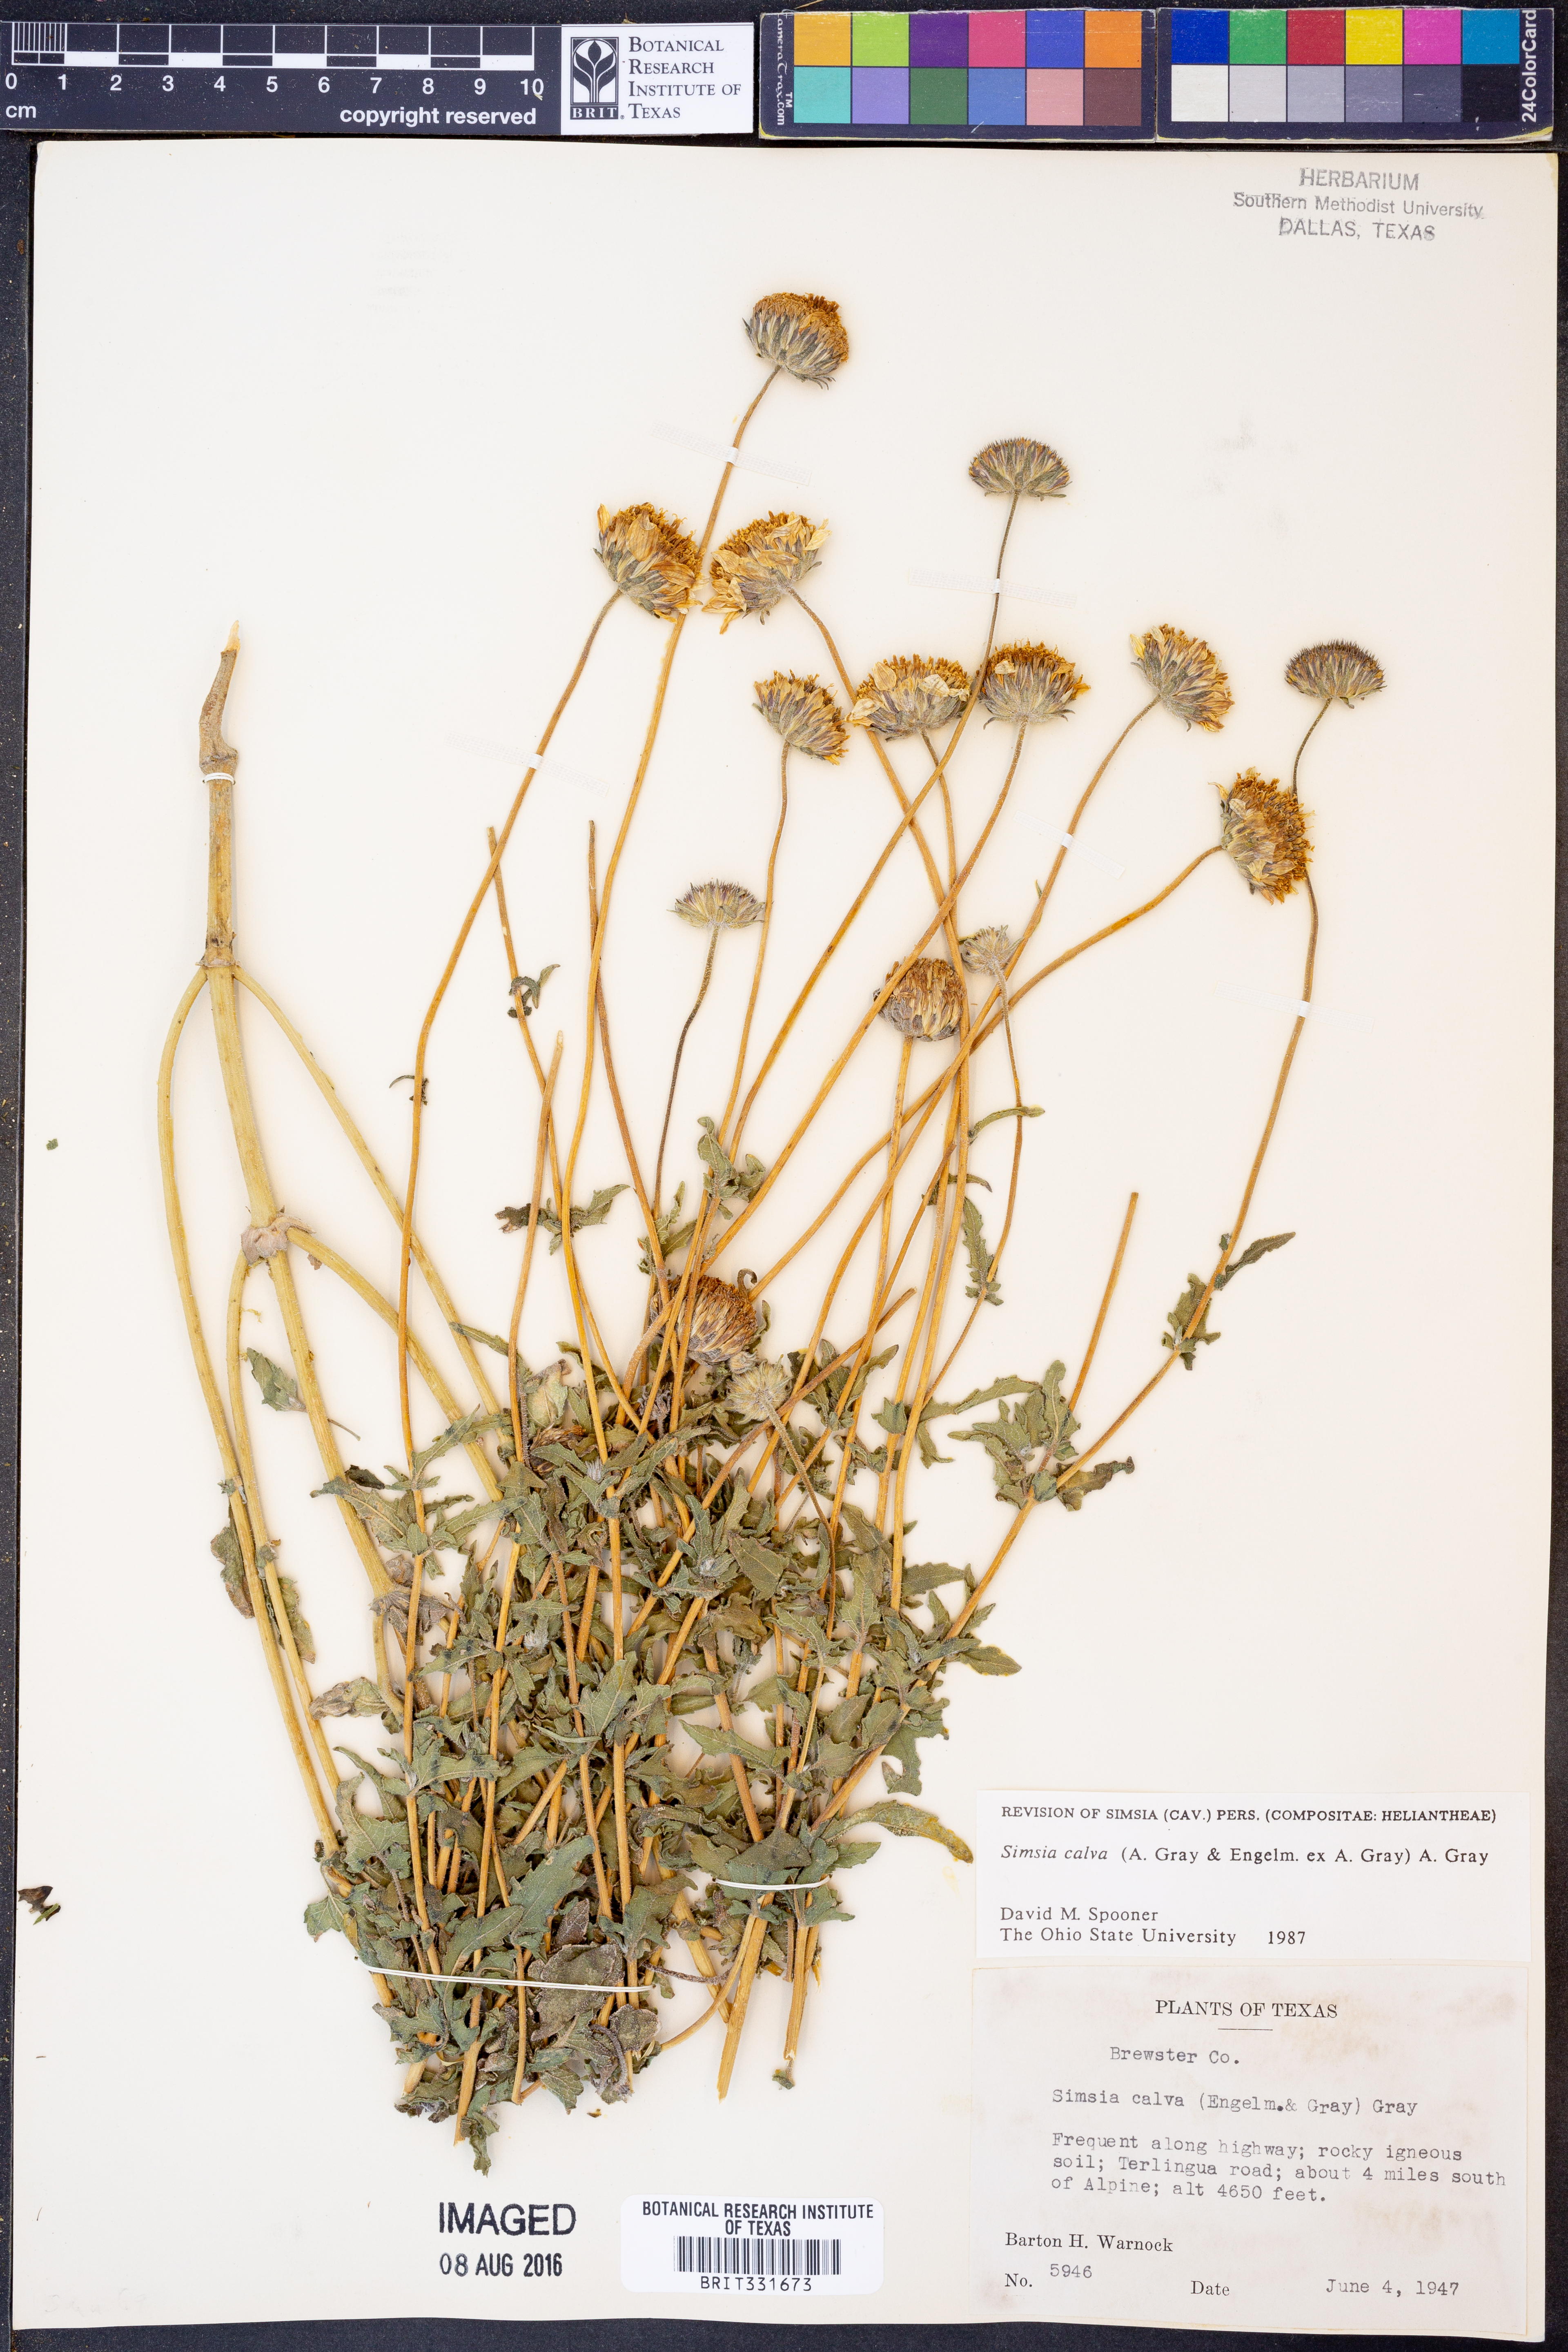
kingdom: Plantae
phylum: Tracheophyta
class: Magnoliopsida
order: Asterales
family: Asteraceae
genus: Simsia
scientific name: Simsia calva
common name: Awnless bush-sunflower
